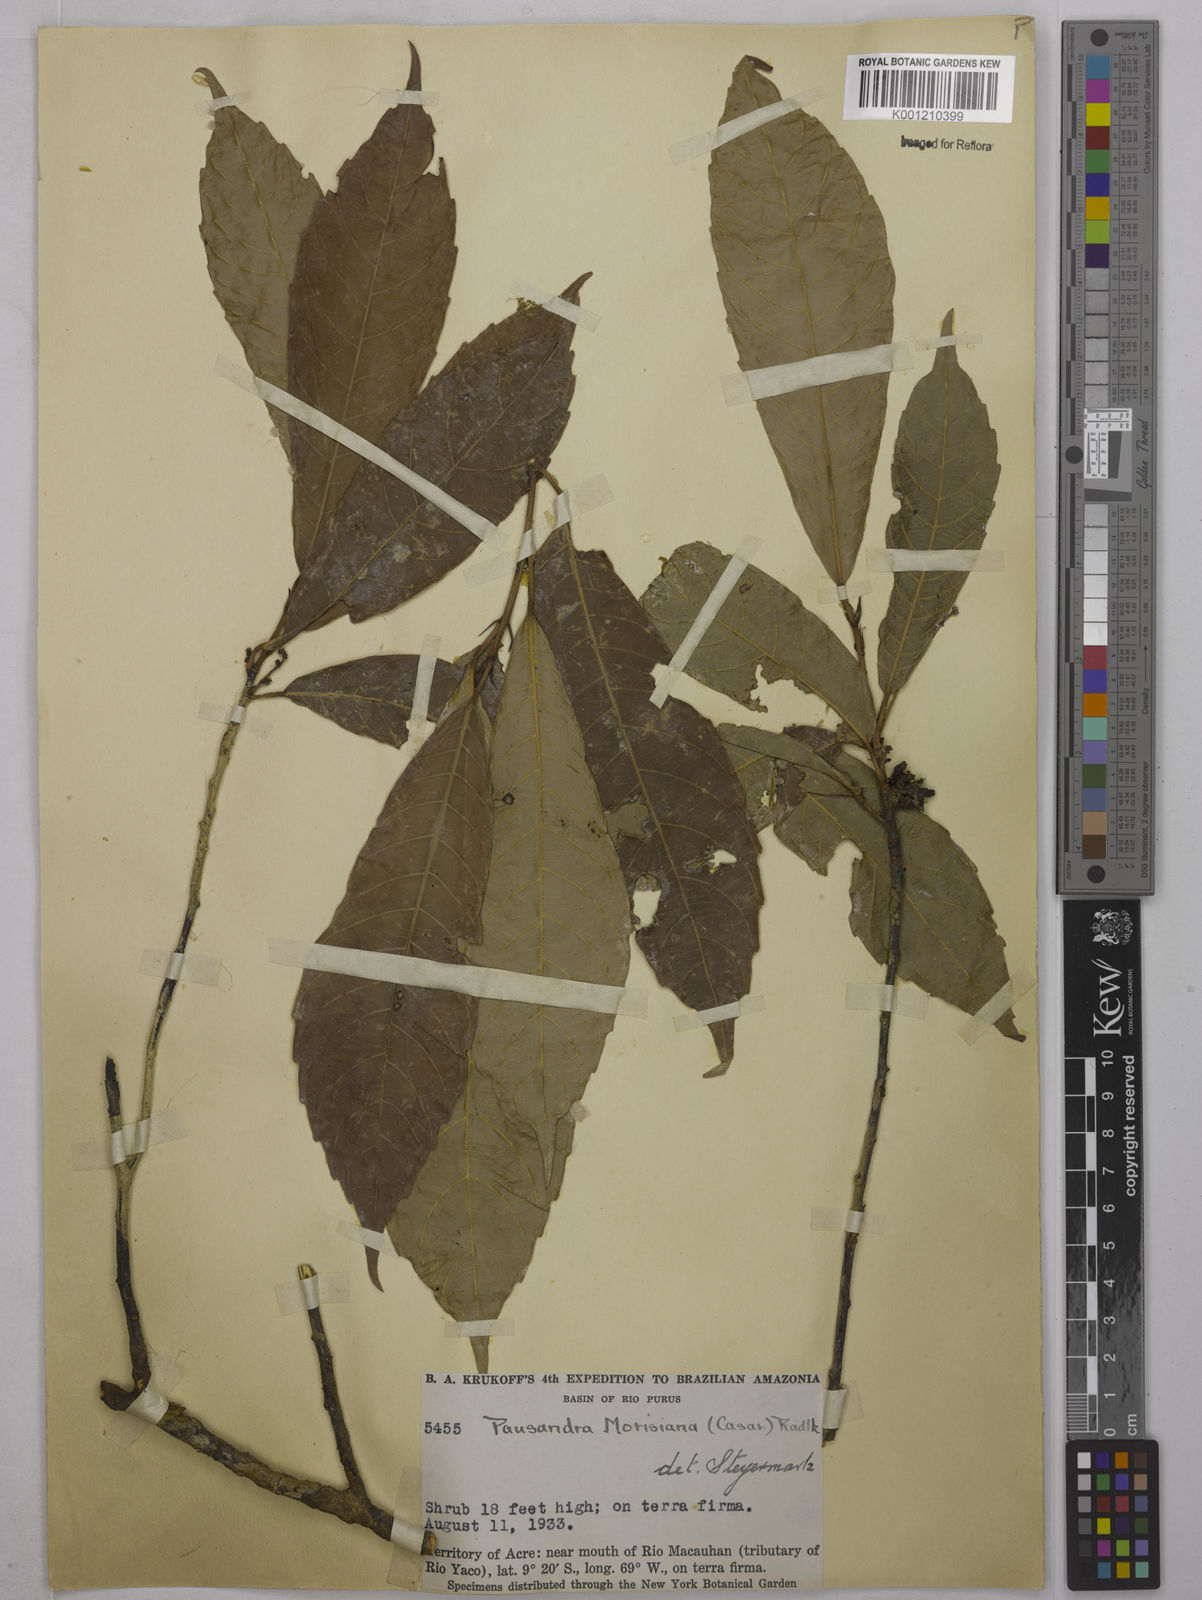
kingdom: Plantae
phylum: Tracheophyta
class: Magnoliopsida
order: Malpighiales
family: Euphorbiaceae
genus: Pausandra
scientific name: Pausandra morisiana
